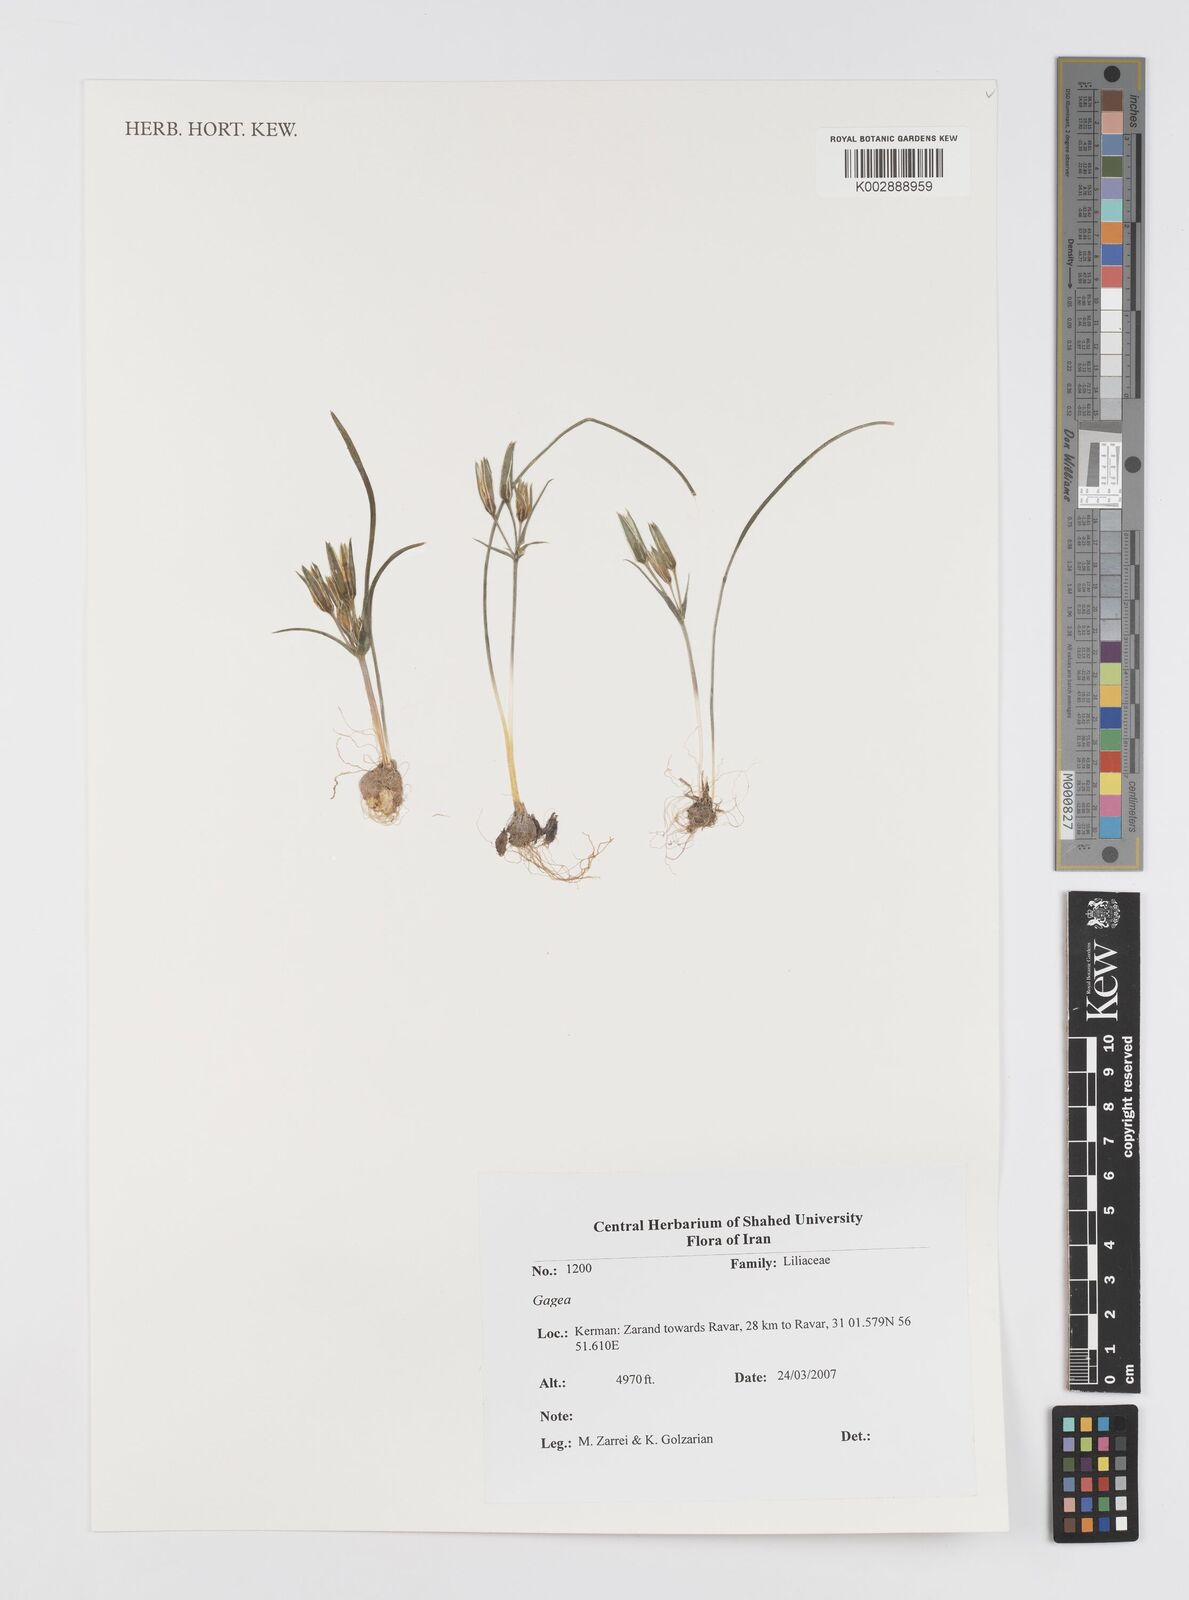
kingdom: Plantae
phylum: Tracheophyta
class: Liliopsida
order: Liliales
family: Liliaceae
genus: Gagea
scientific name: Gagea
